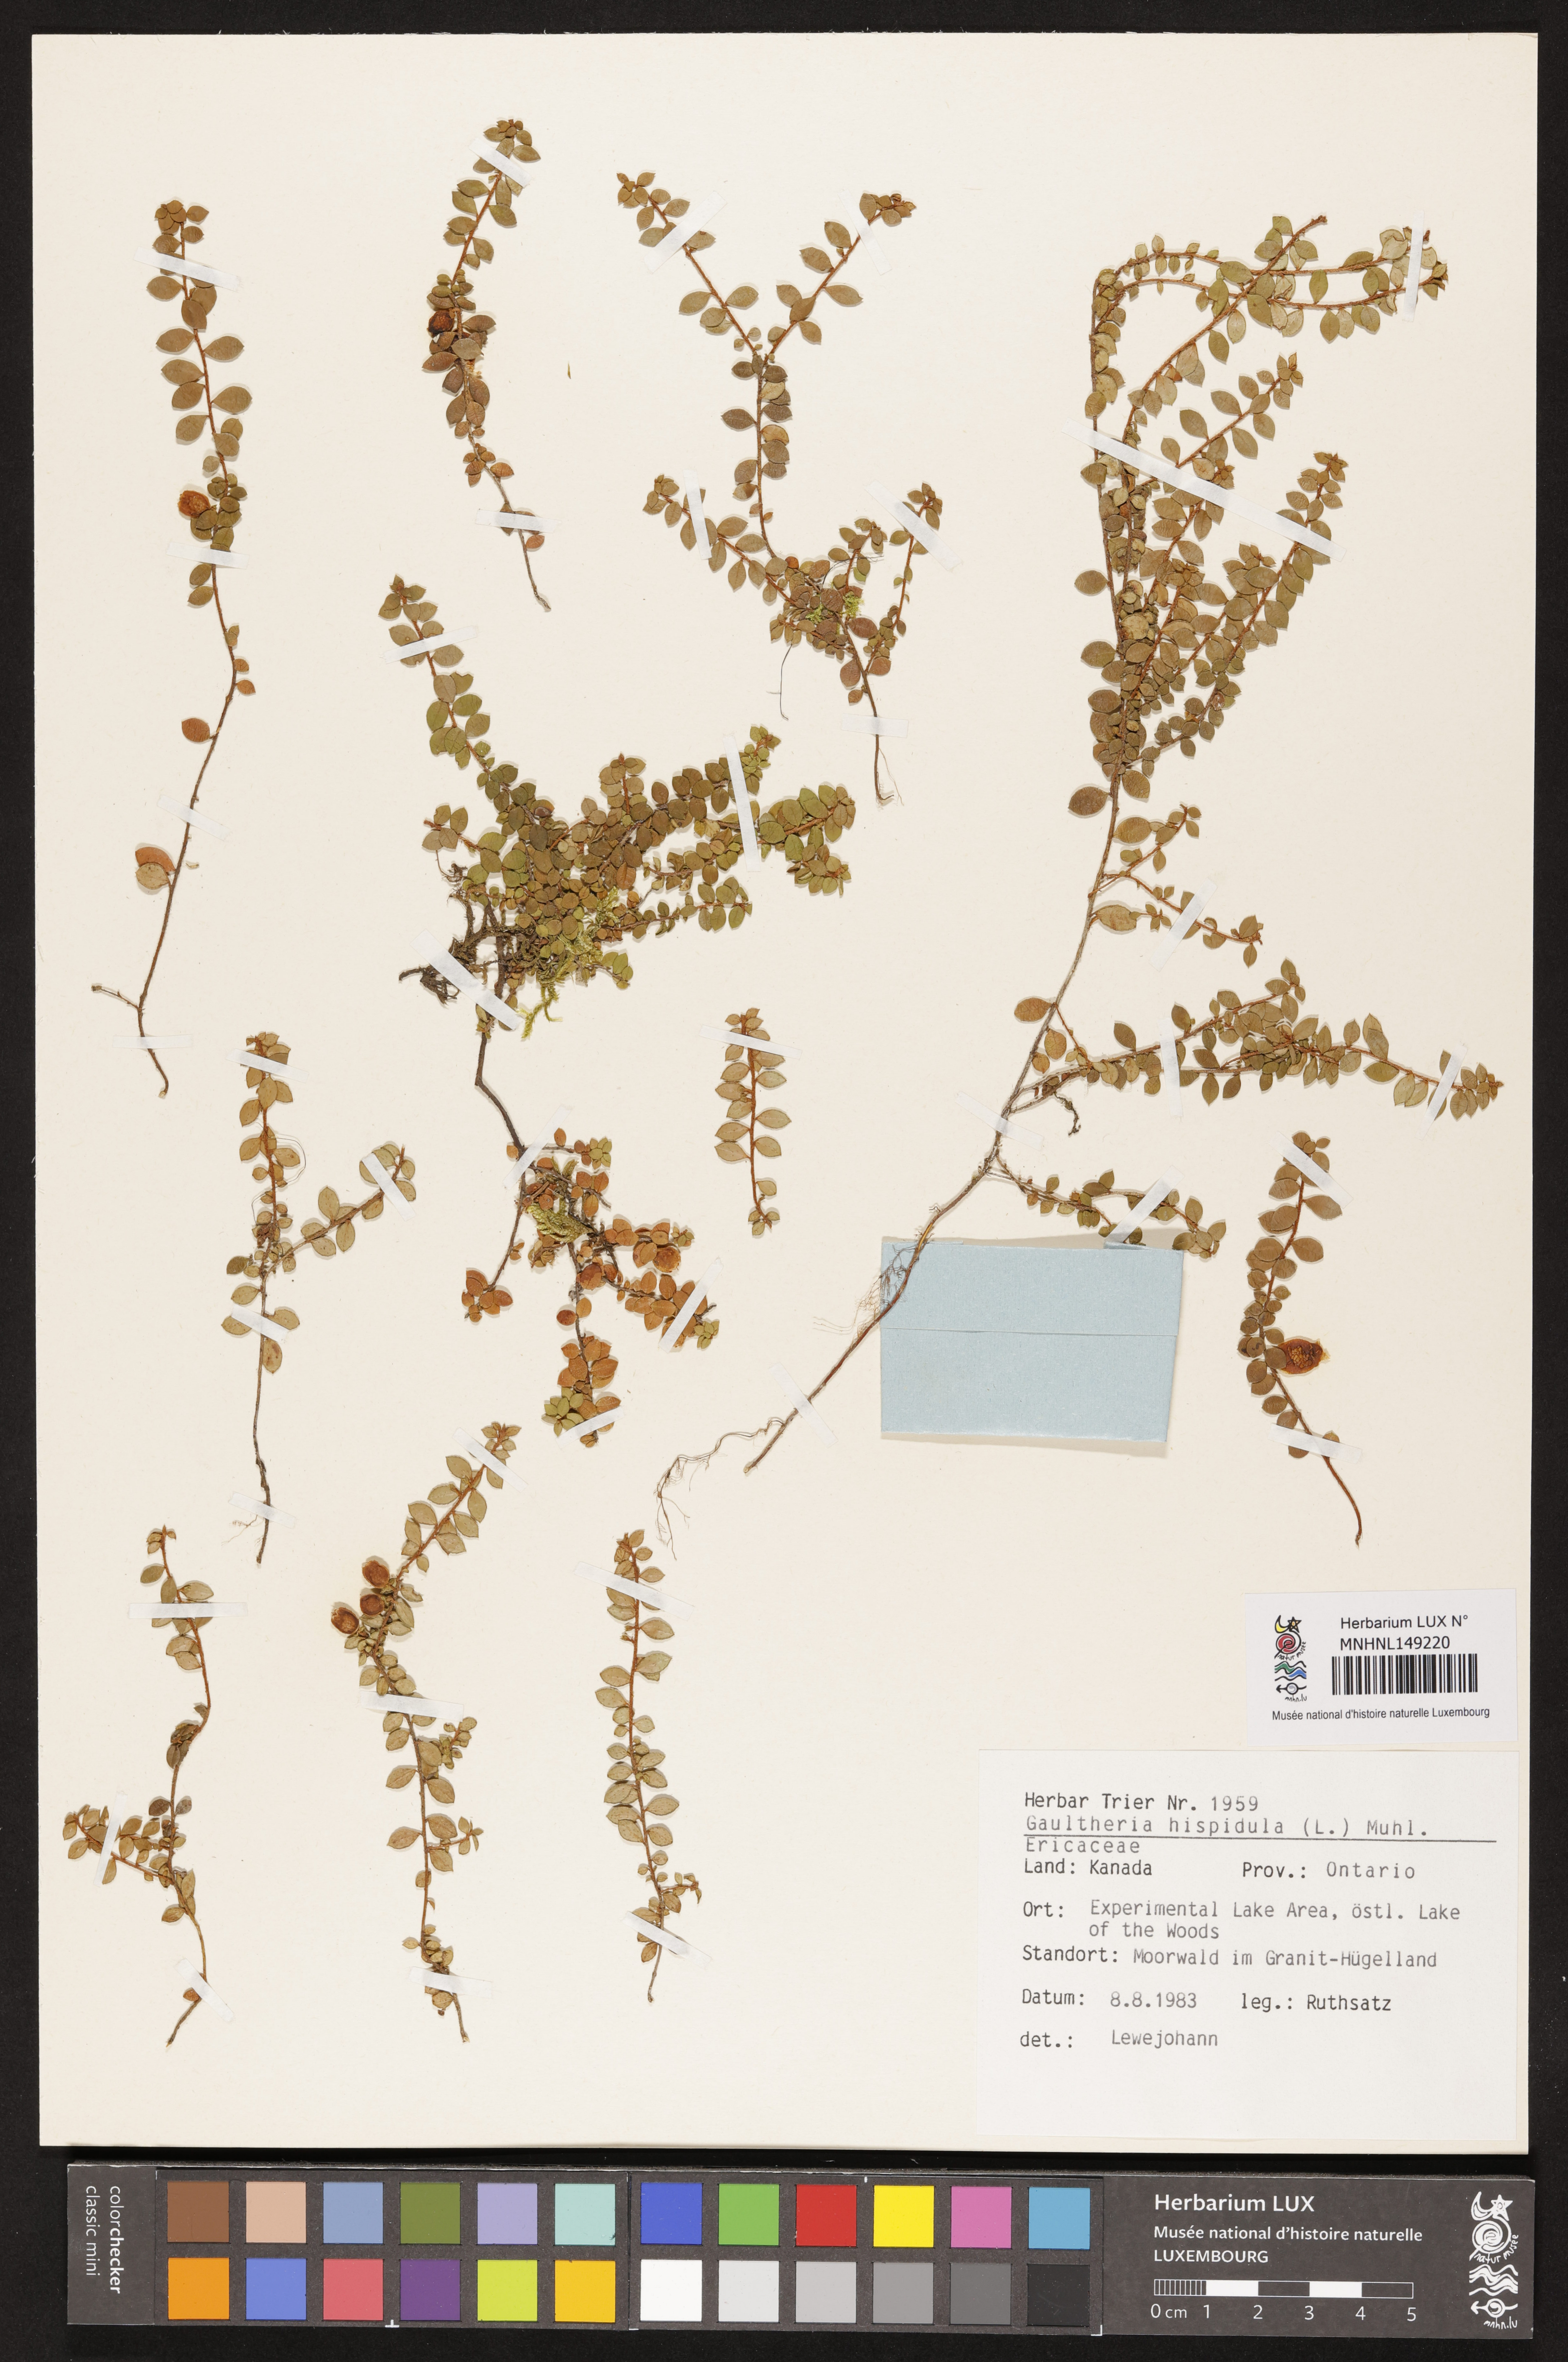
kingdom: Plantae
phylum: Tracheophyta
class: Magnoliopsida
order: Ericales
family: Ericaceae
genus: Gaultheria
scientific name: Gaultheria hispidula
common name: Cancer wintergreen
